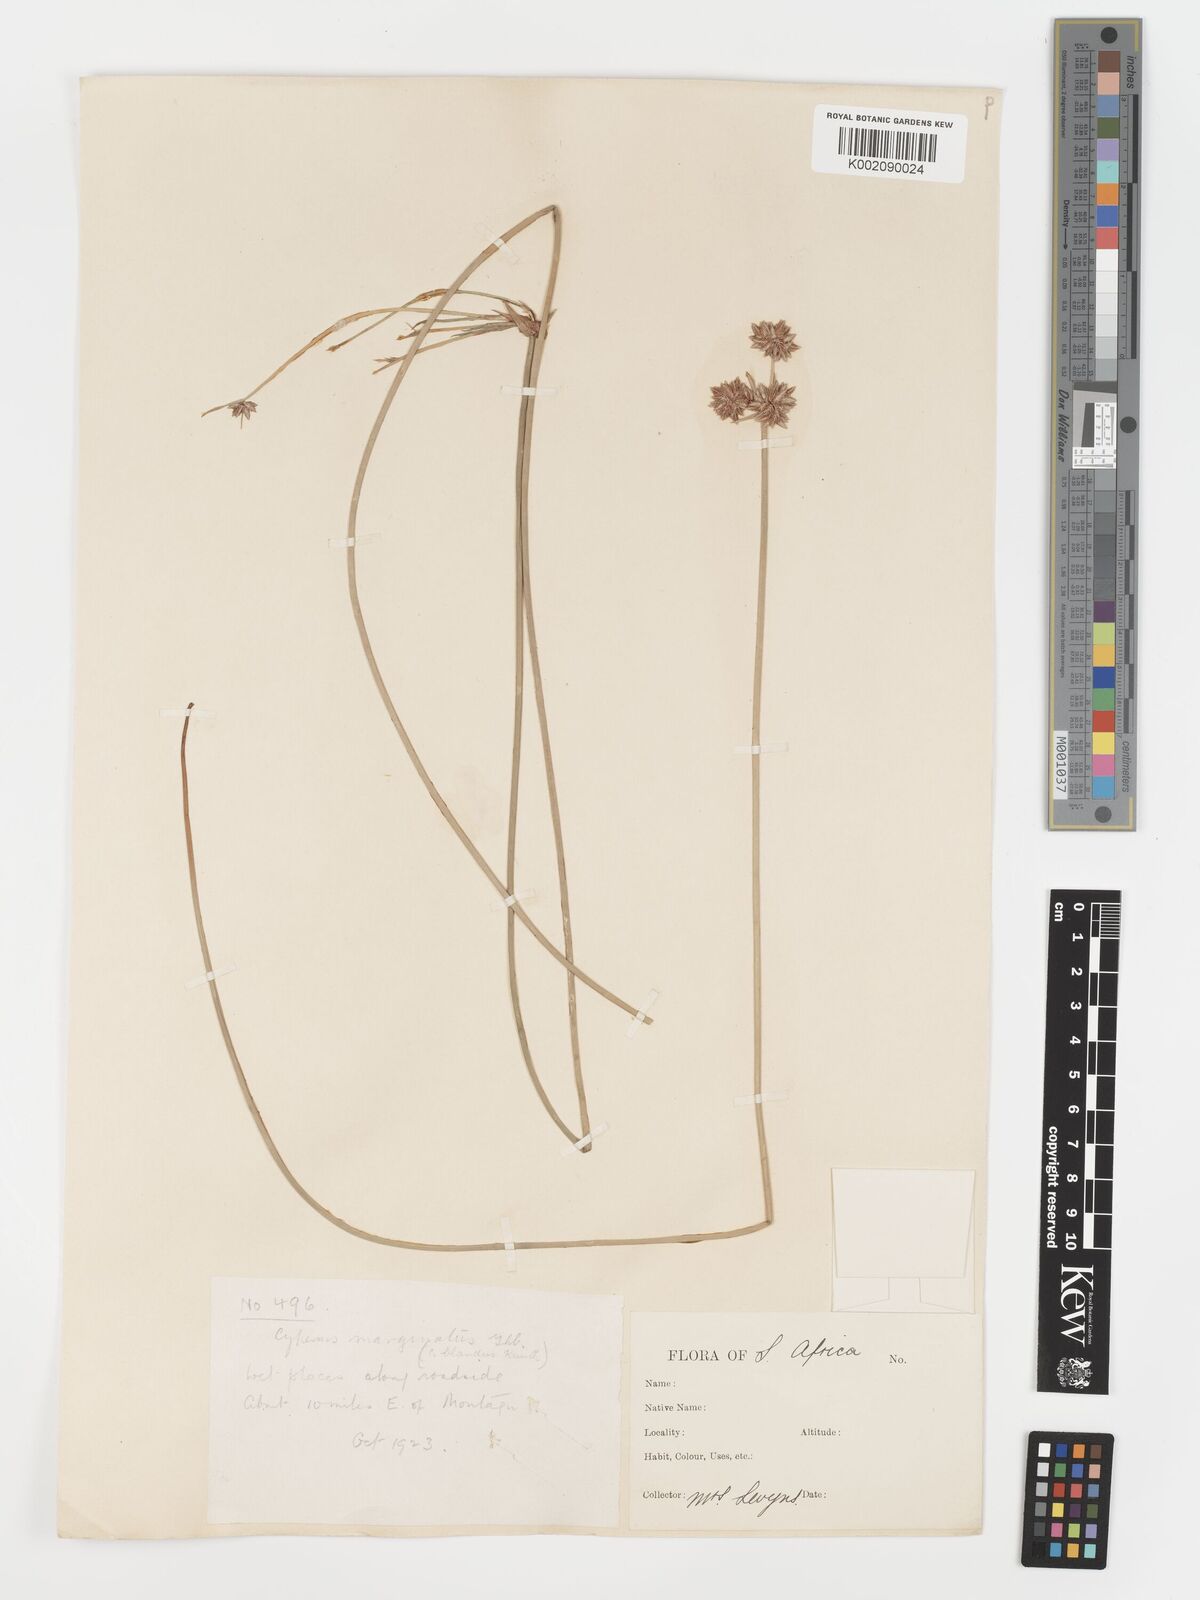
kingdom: Plantae
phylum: Tracheophyta
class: Liliopsida
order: Poales
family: Cyperaceae
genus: Cyperus
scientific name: Cyperus marginatus
